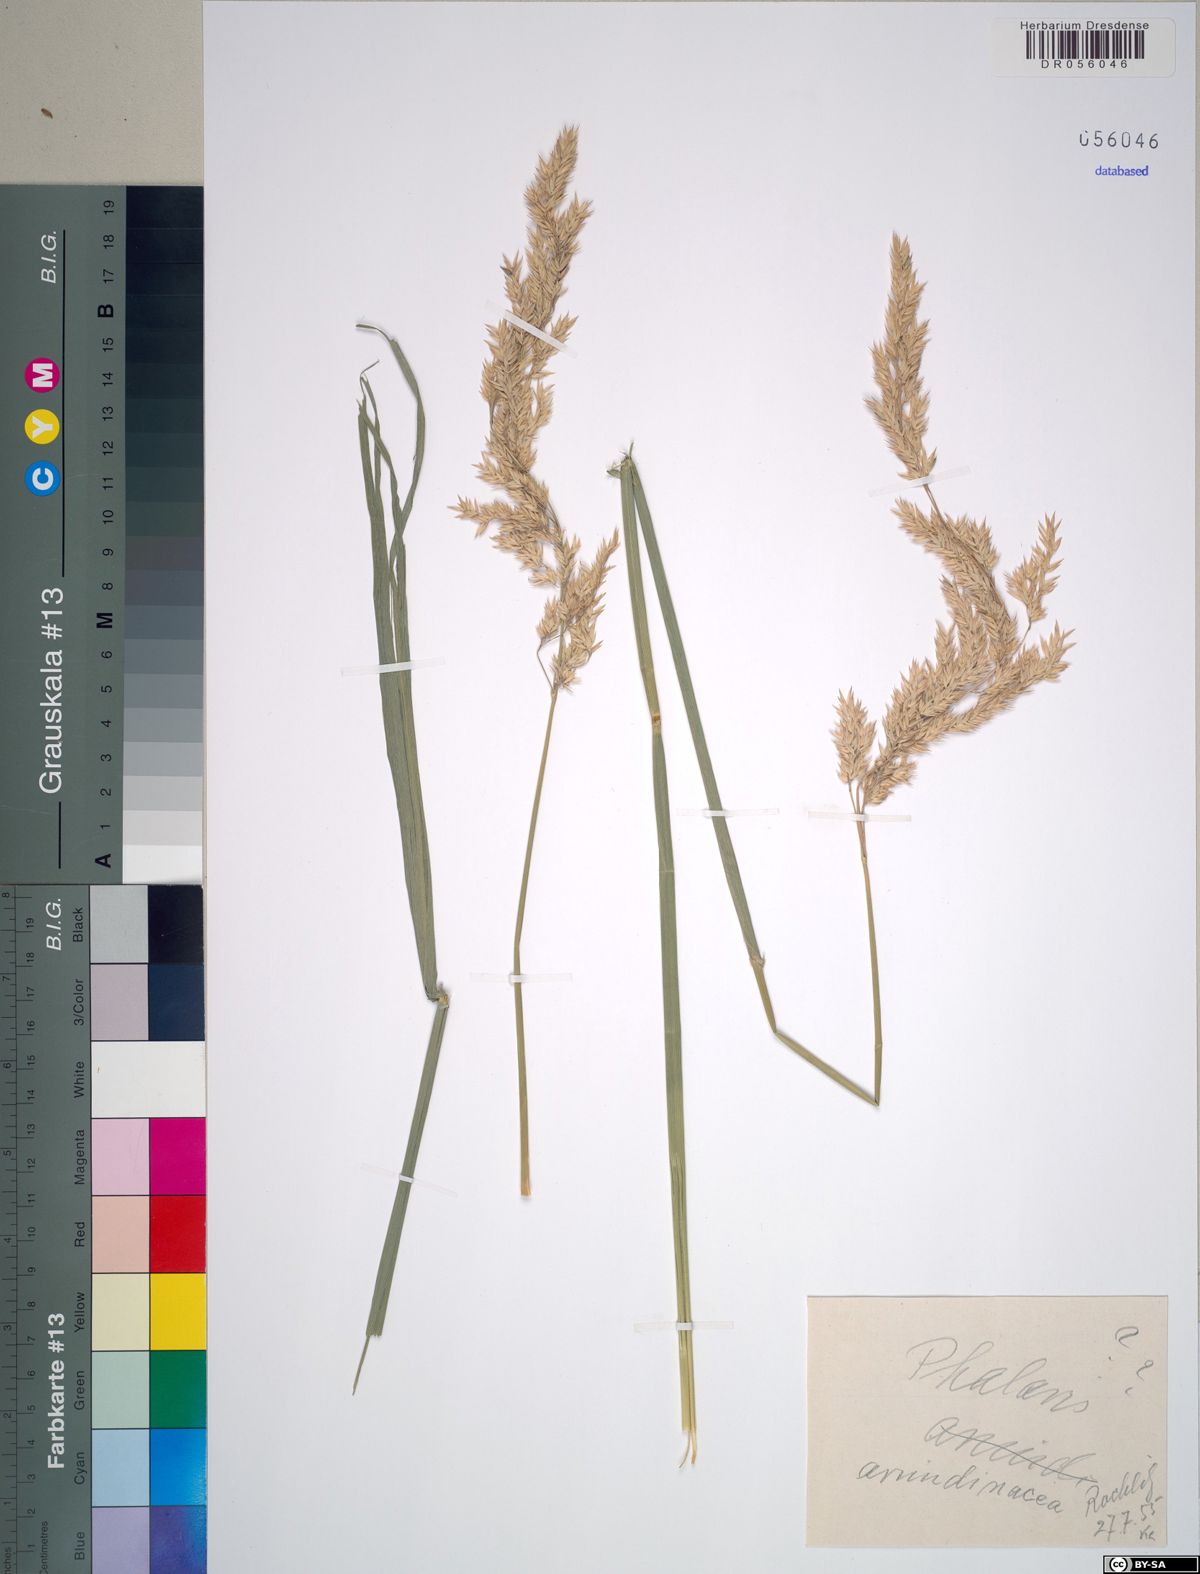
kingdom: Plantae
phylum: Tracheophyta
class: Liliopsida
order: Poales
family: Poaceae
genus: Phalaris
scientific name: Phalaris arundinacea
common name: Reed canary-grass
